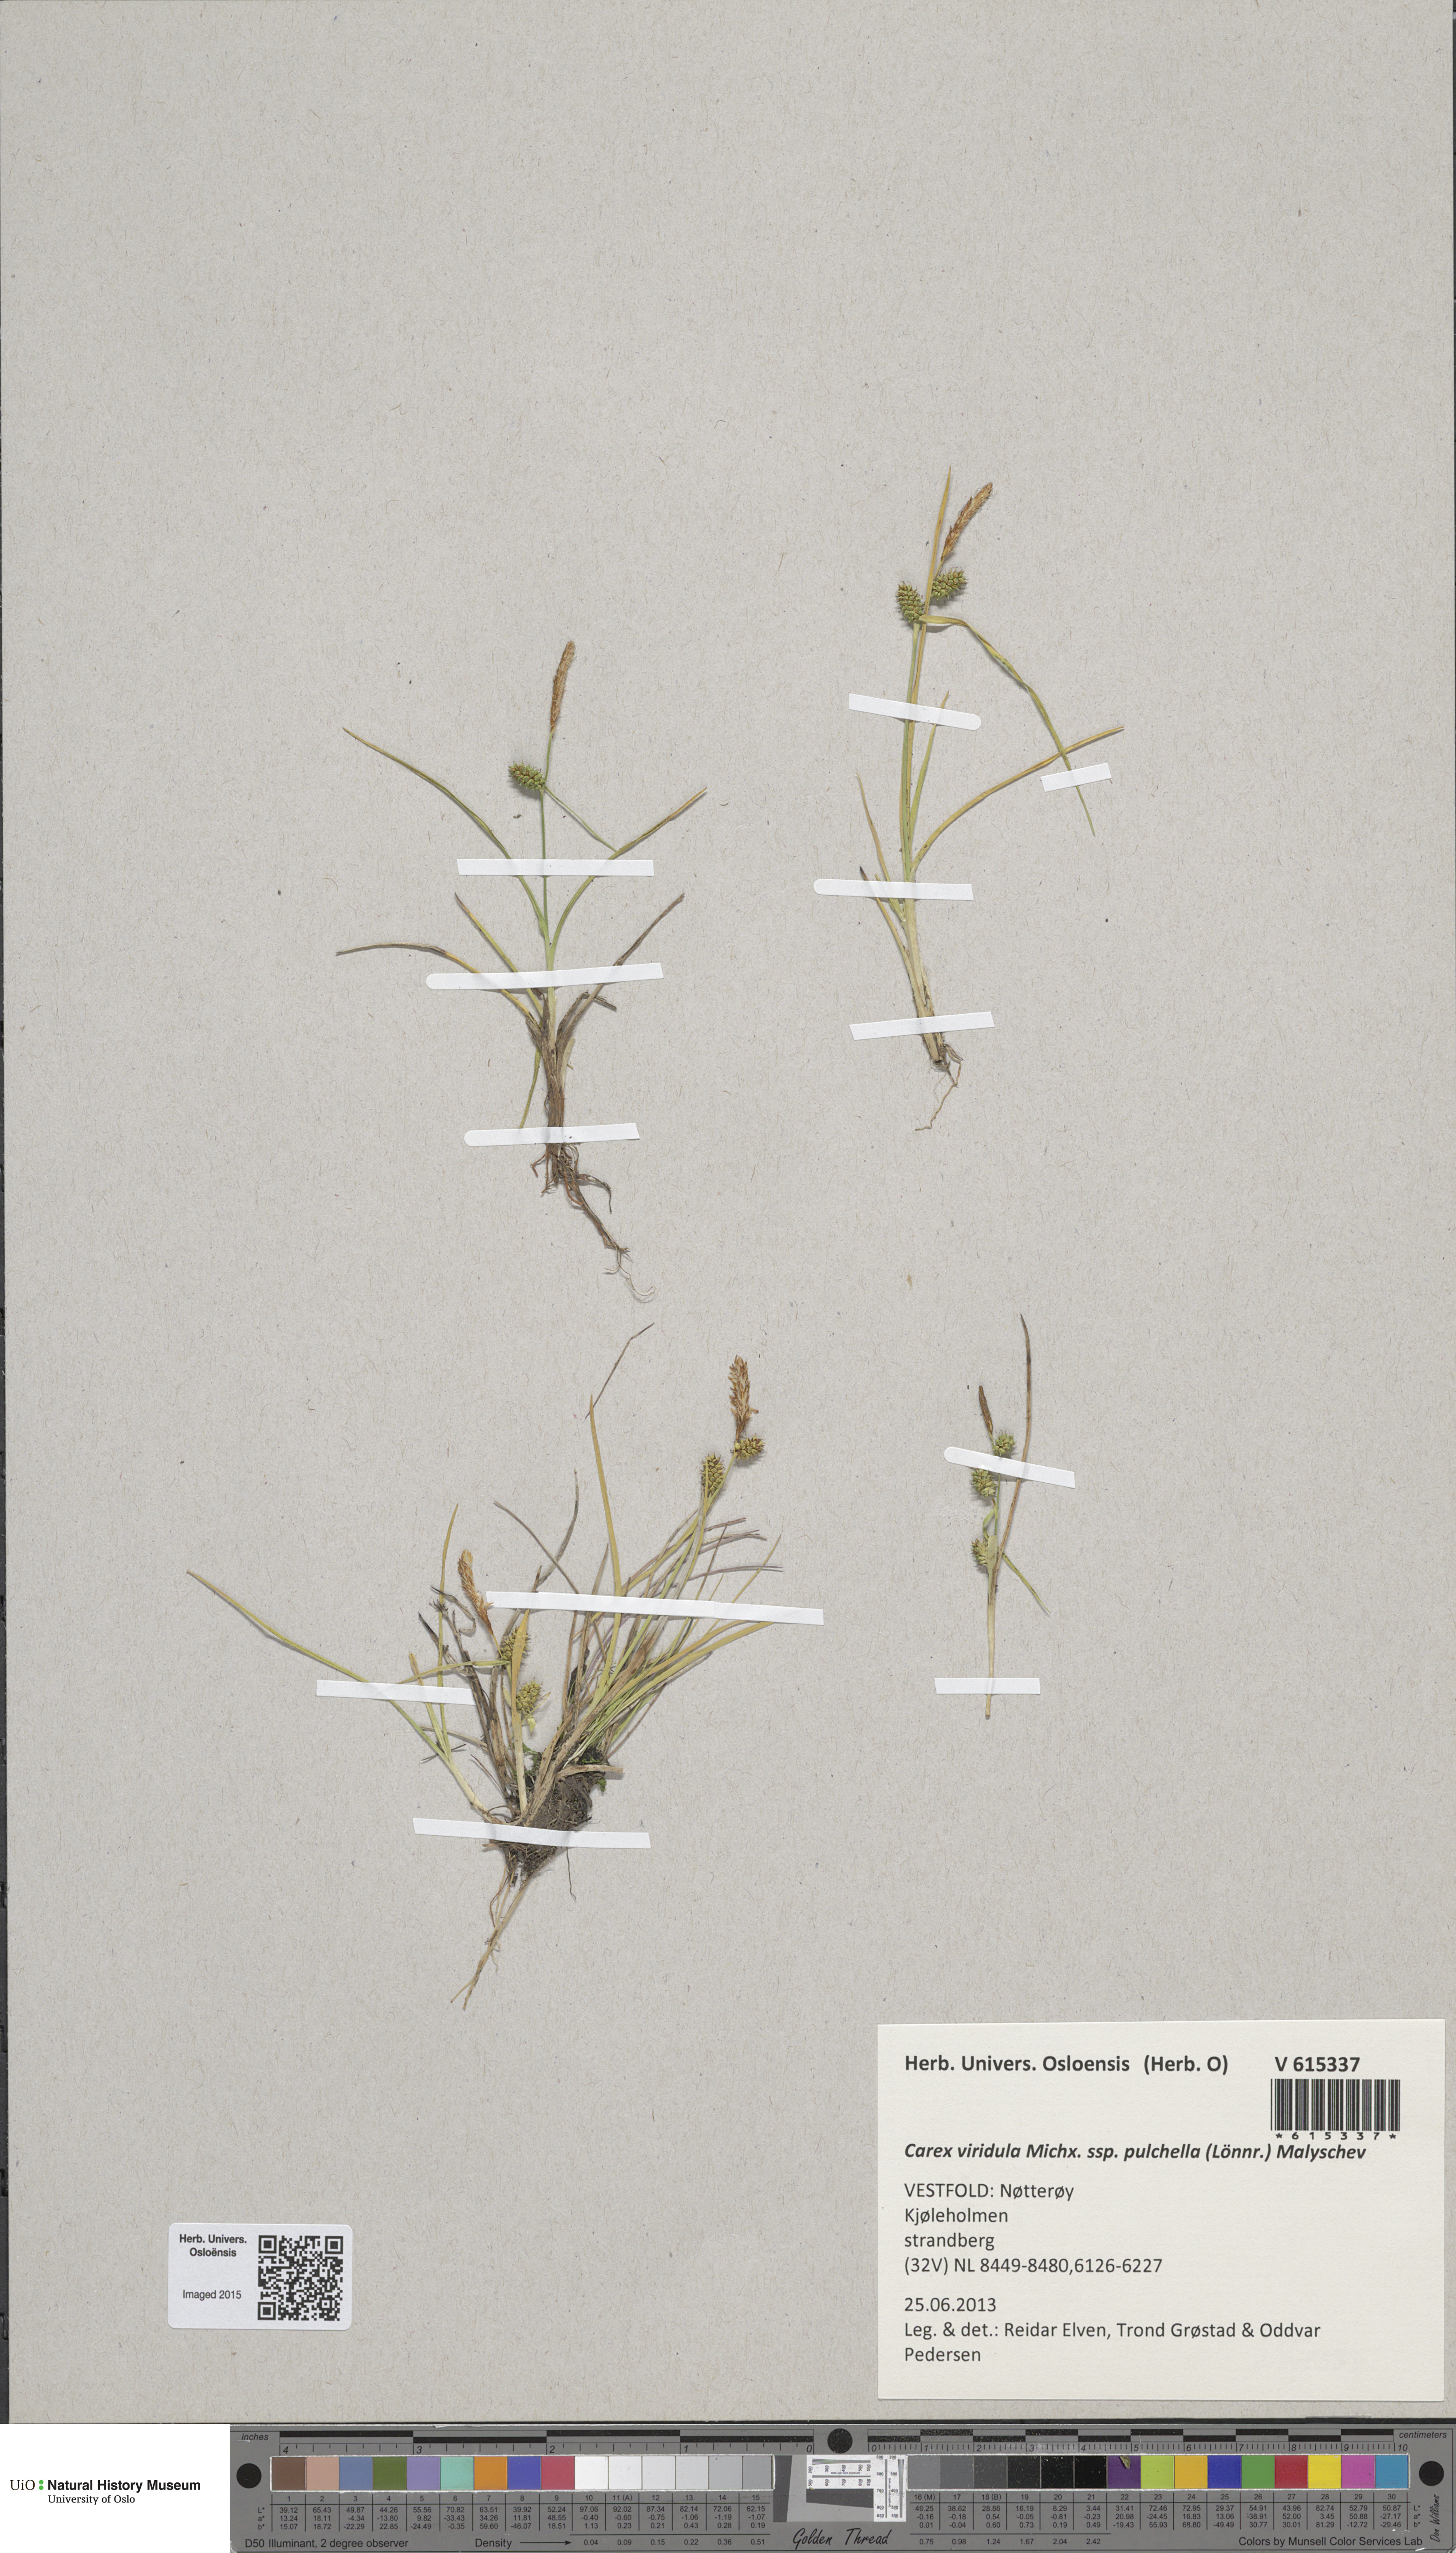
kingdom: Plantae
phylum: Tracheophyta
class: Liliopsida
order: Poales
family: Cyperaceae
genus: Carex
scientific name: Carex oederi
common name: Common & small-fruited yellow-sedge
